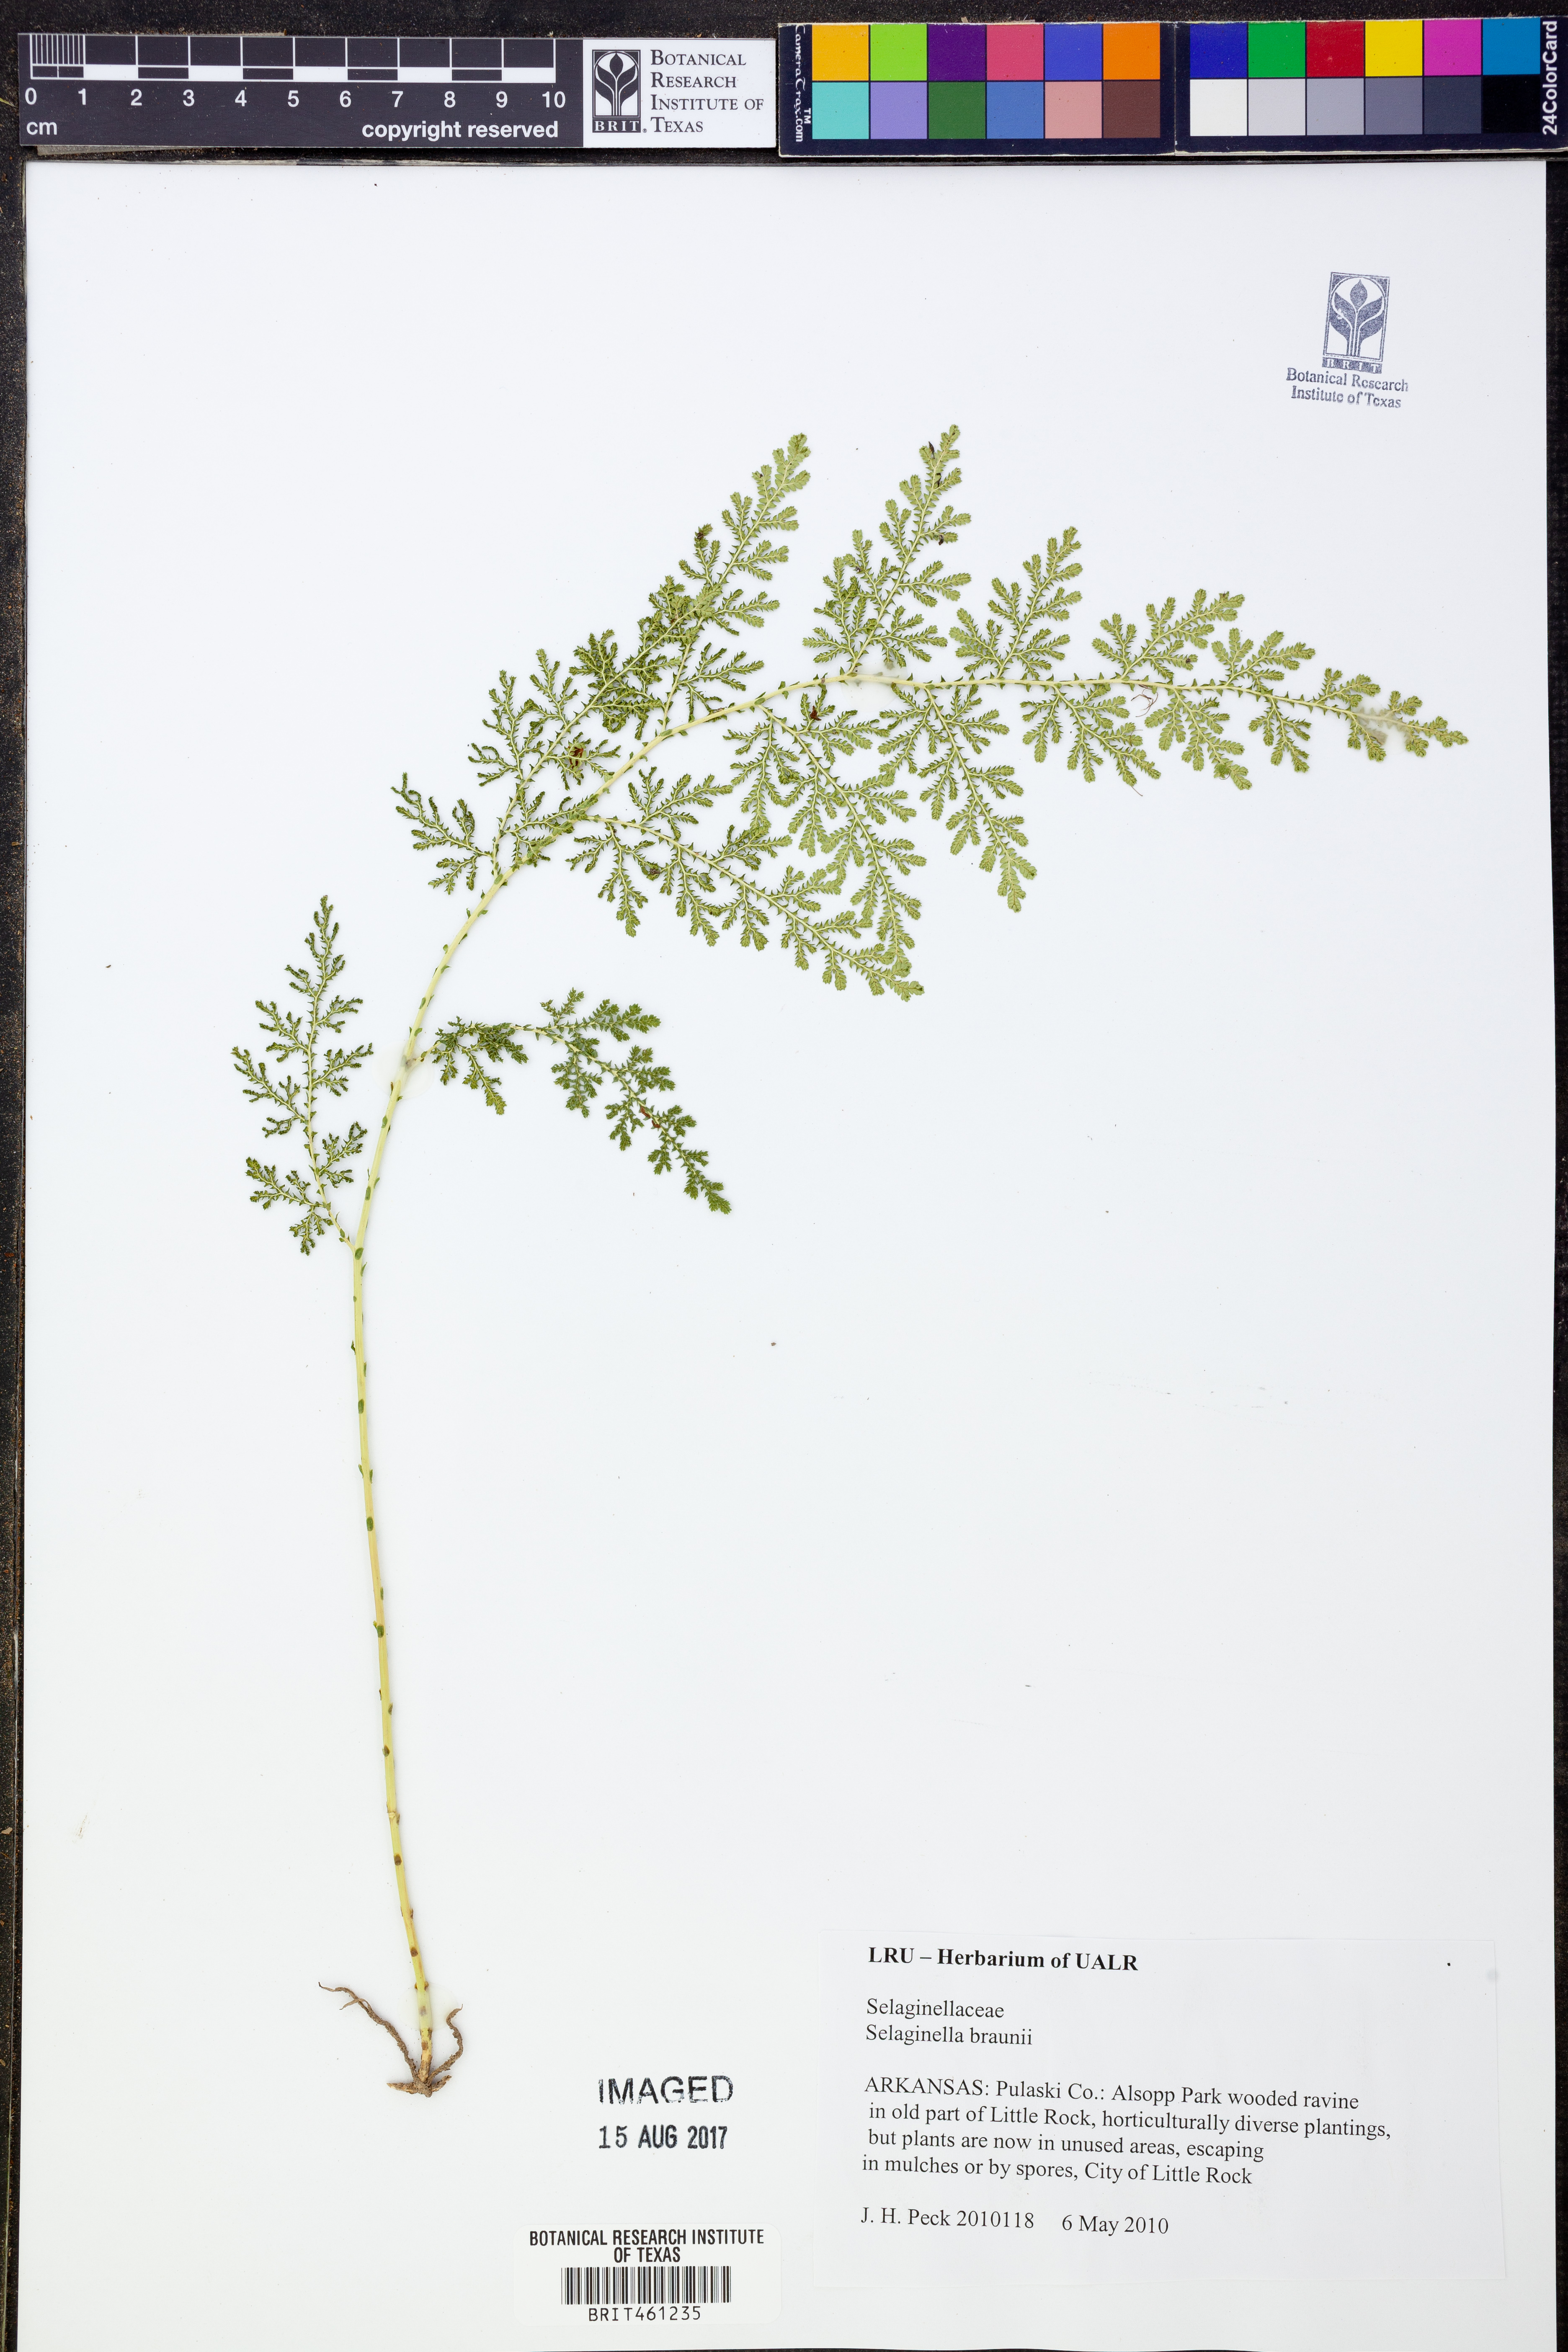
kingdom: Plantae
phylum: Tracheophyta
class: Lycopodiopsida
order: Selaginellales
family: Selaginellaceae
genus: Selaginella
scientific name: Selaginella braunii
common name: Braun's spikemoss
